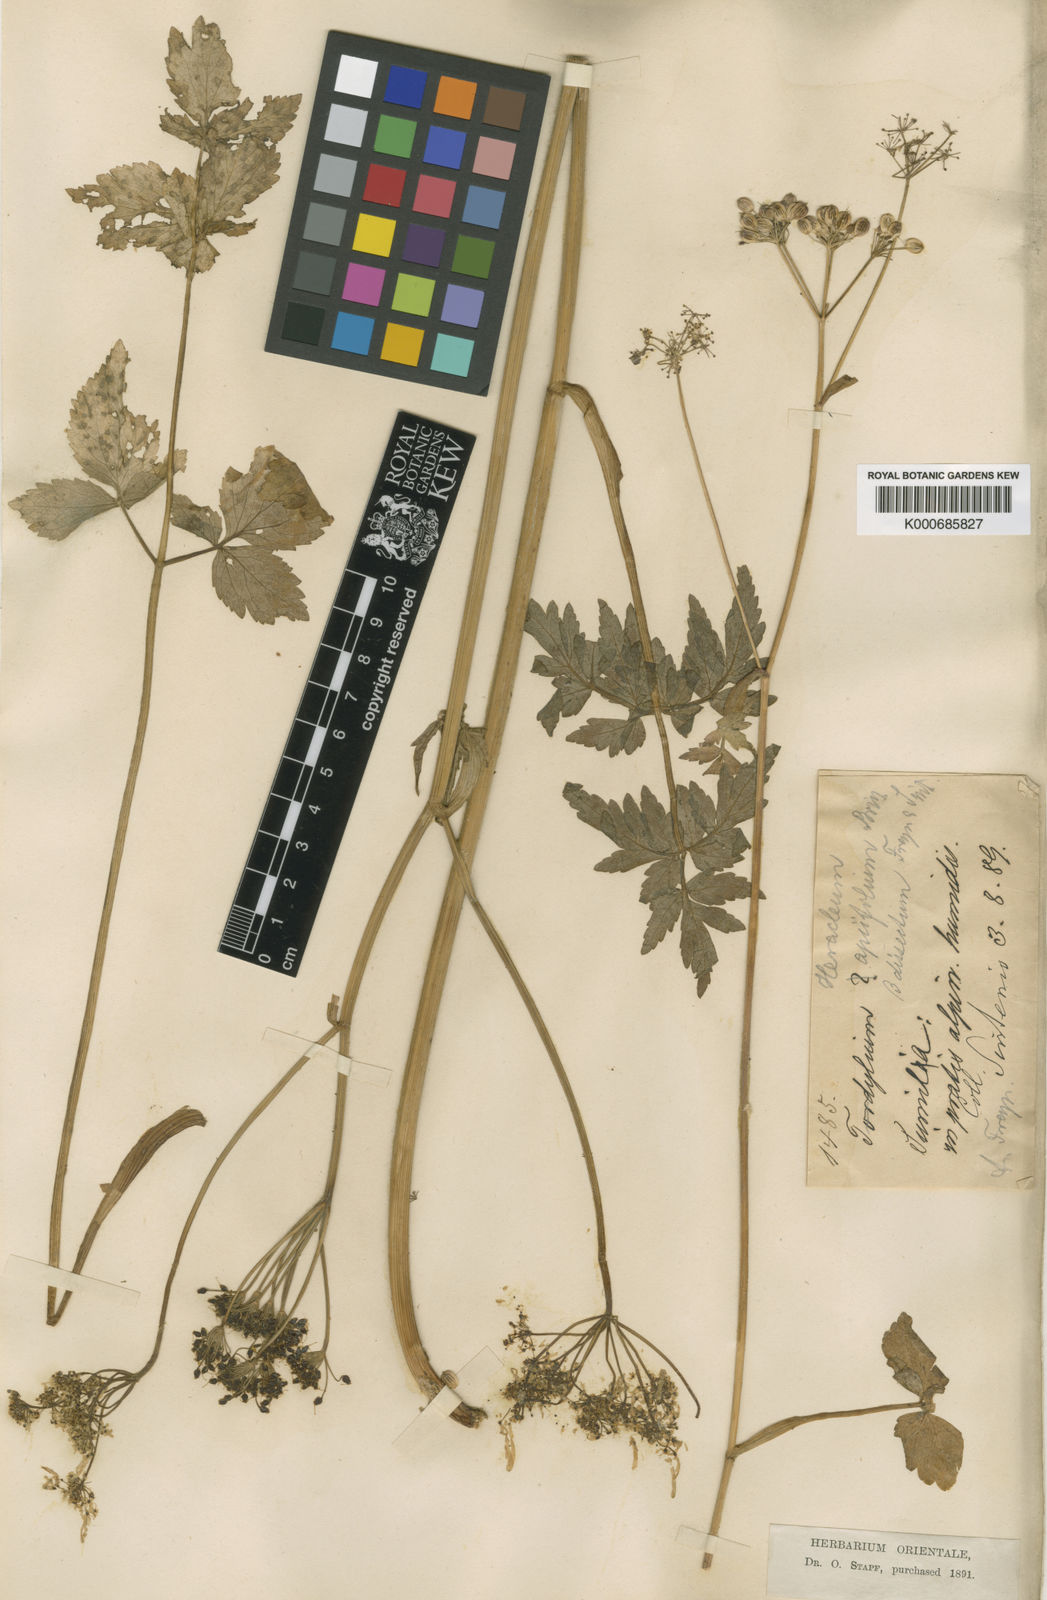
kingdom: Plantae
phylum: Tracheophyta
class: Magnoliopsida
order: Apiales
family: Apiaceae
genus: Heracleum
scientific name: Heracleum apiifolium
